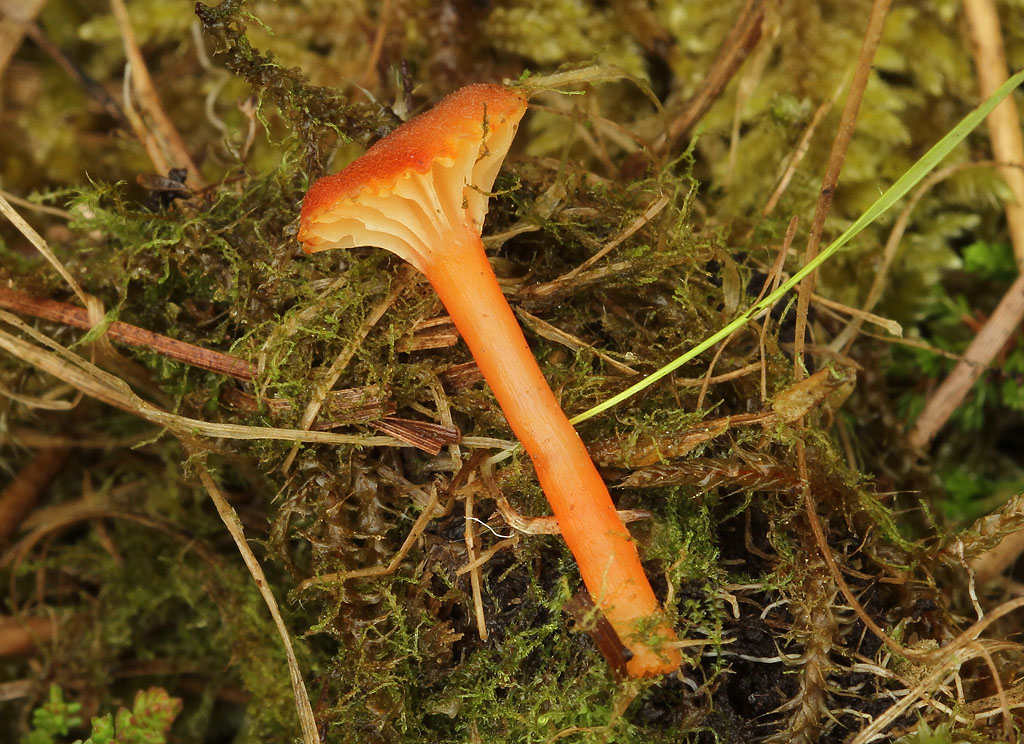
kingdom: Fungi
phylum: Basidiomycota
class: Agaricomycetes
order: Agaricales
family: Hygrophoraceae
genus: Hygrocybe
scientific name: Hygrocybe coccineocrenata
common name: tørvemos-vokshat
